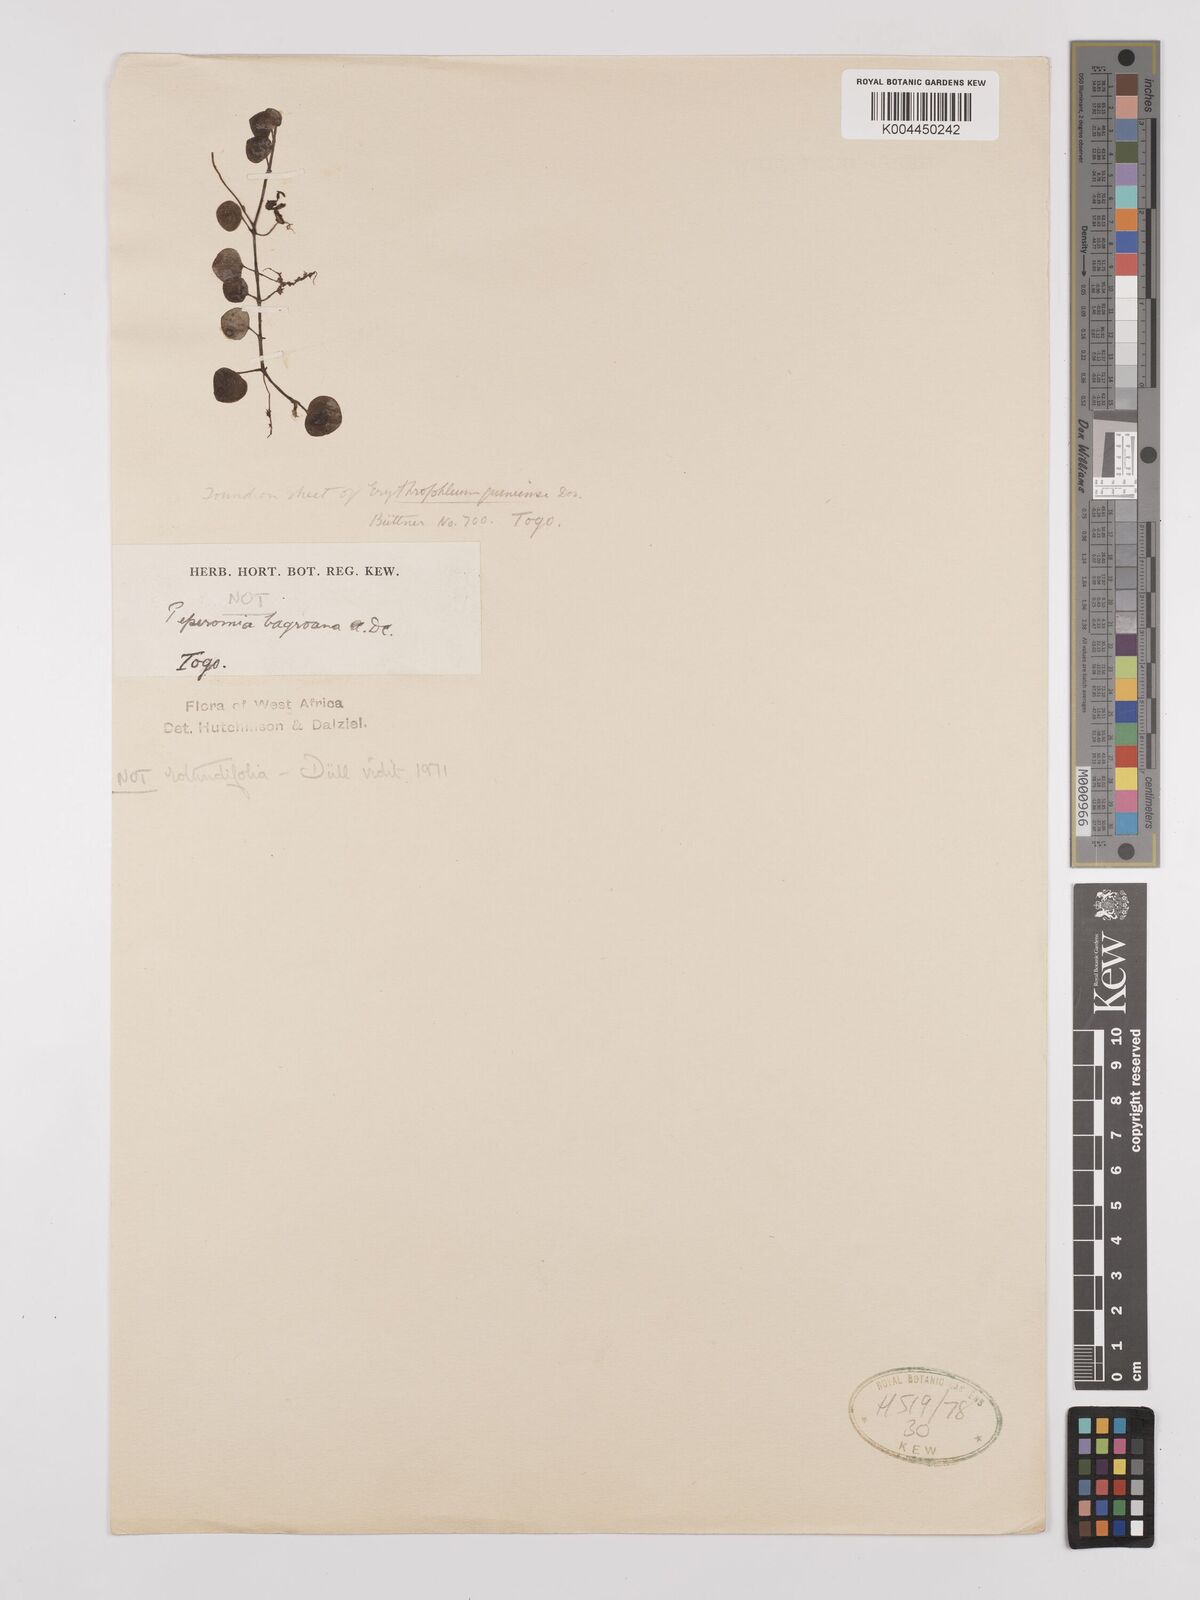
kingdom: Plantae
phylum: Tracheophyta
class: Magnoliopsida
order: Piperales
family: Piperaceae
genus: Peperomia
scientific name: Peperomia
